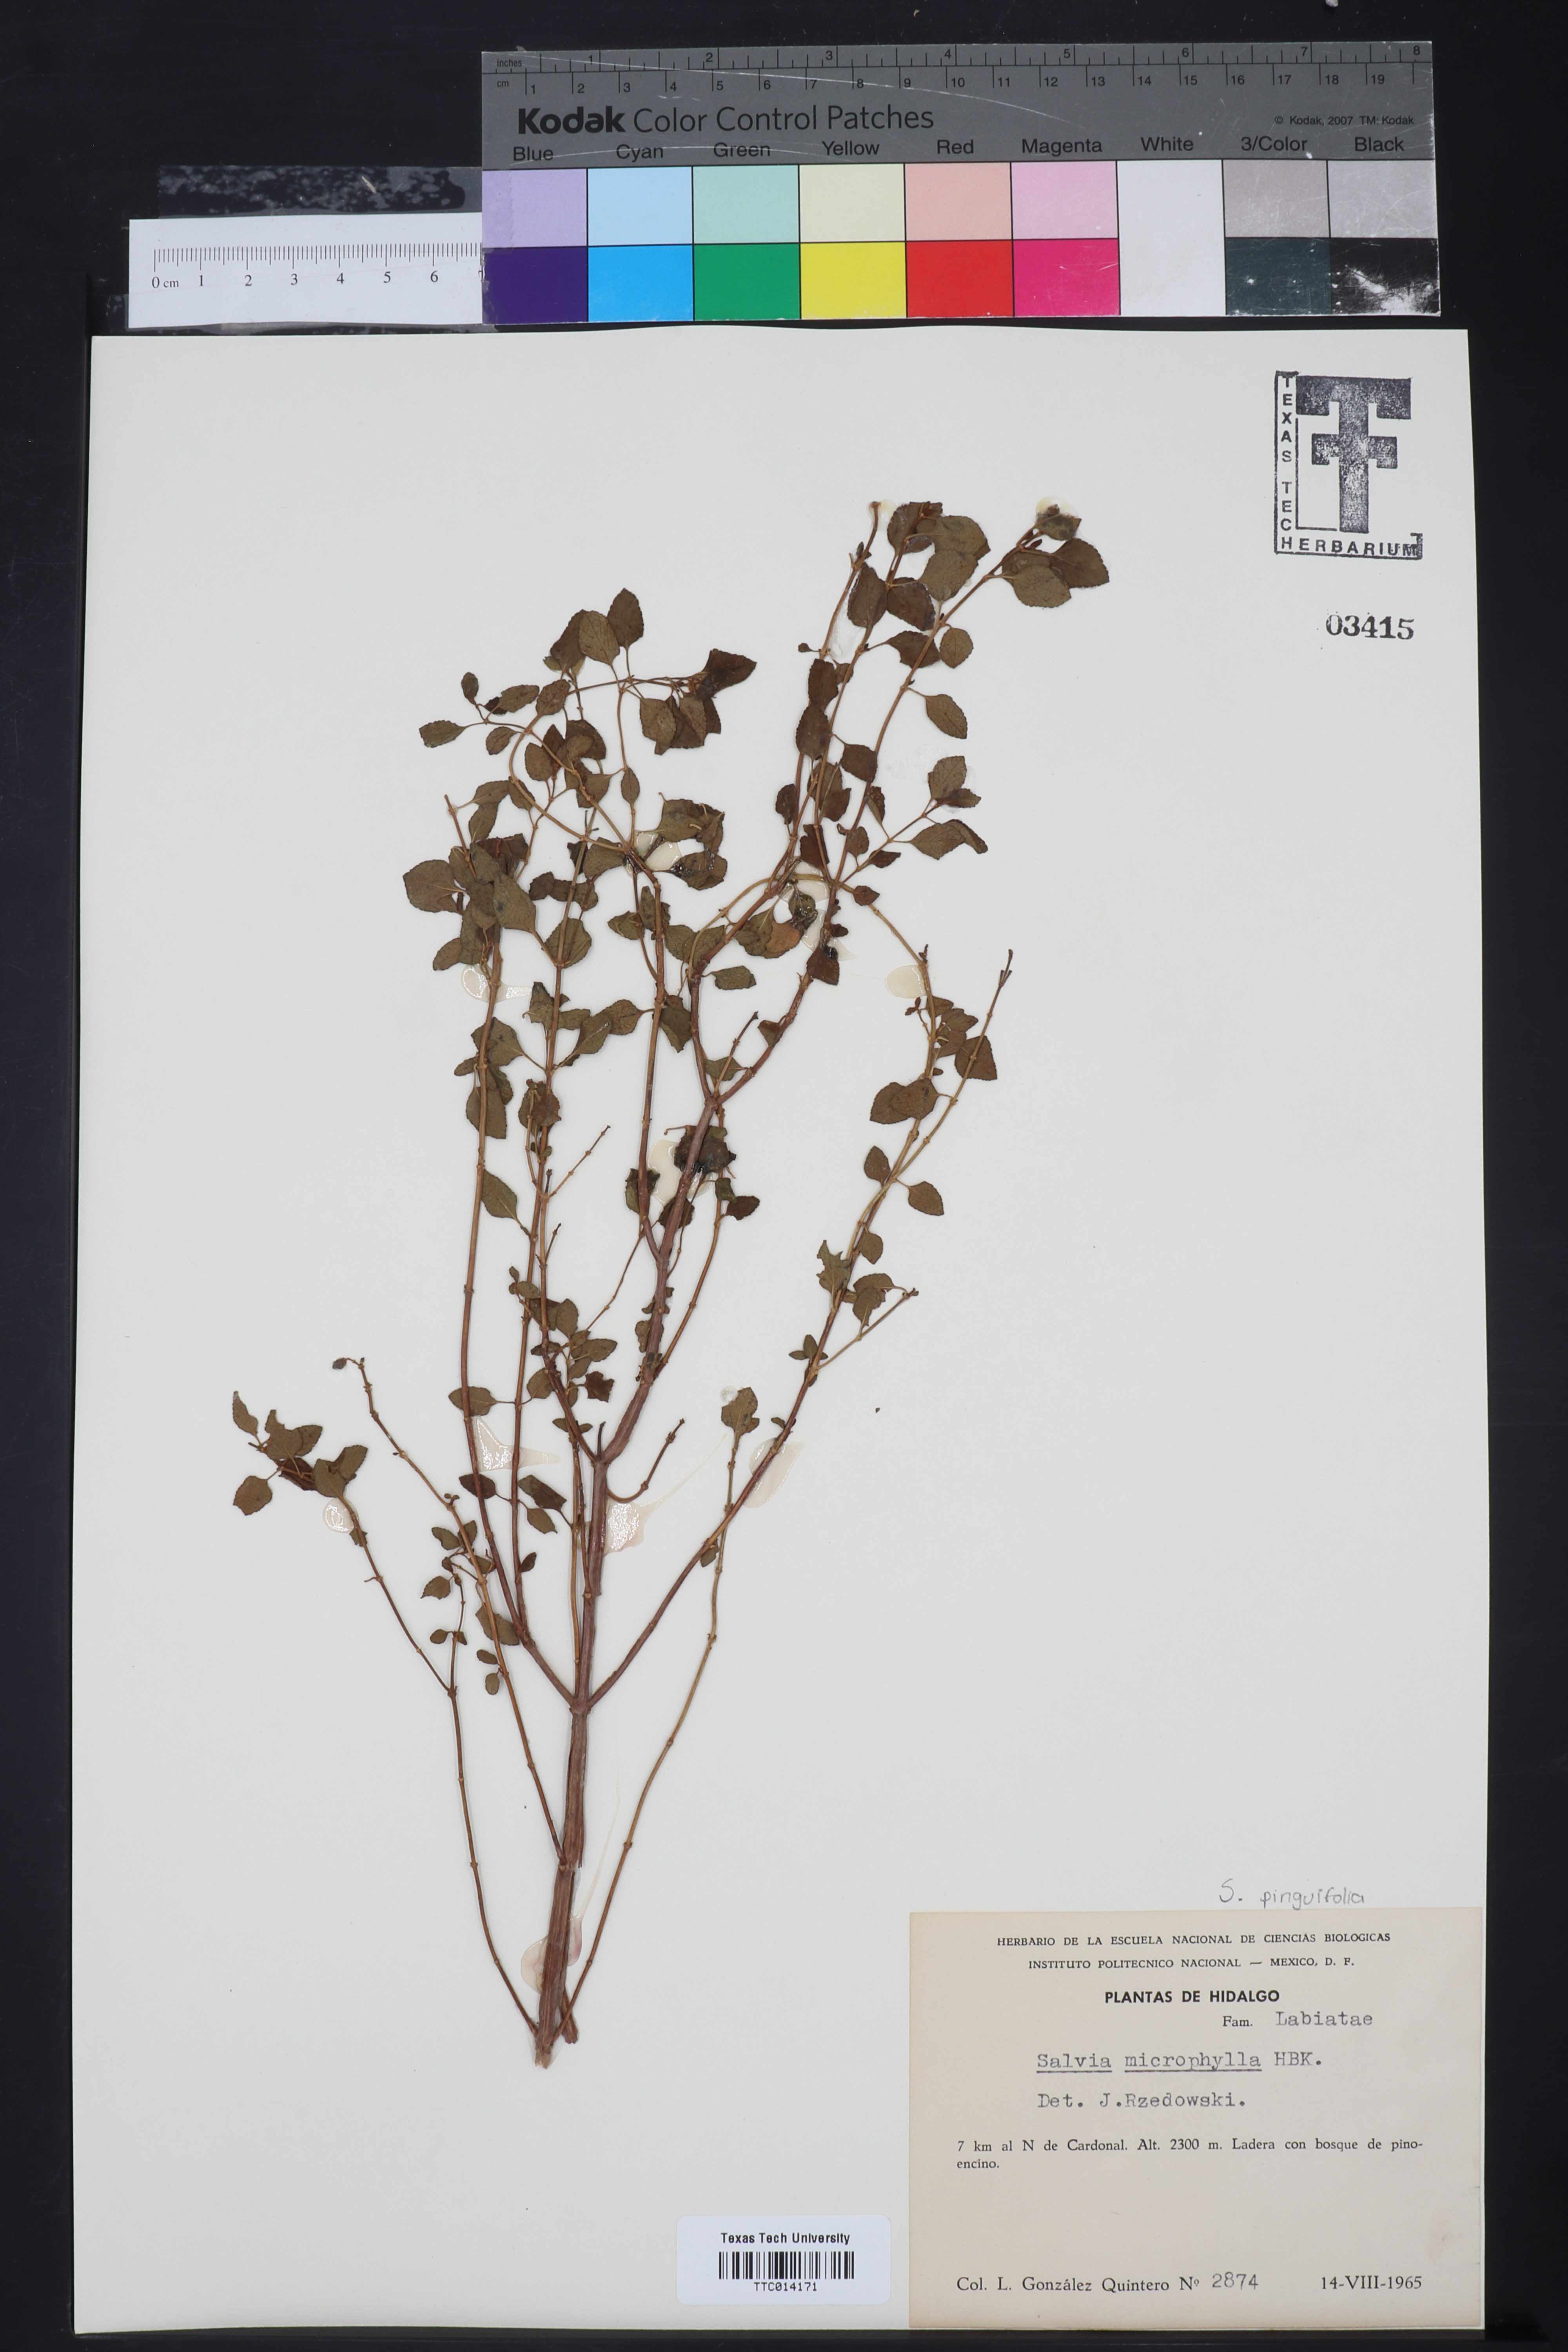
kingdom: Plantae
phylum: Tracheophyta
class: Magnoliopsida
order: Lamiales
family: Lamiaceae
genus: Salvia
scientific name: Salvia macrophylla
